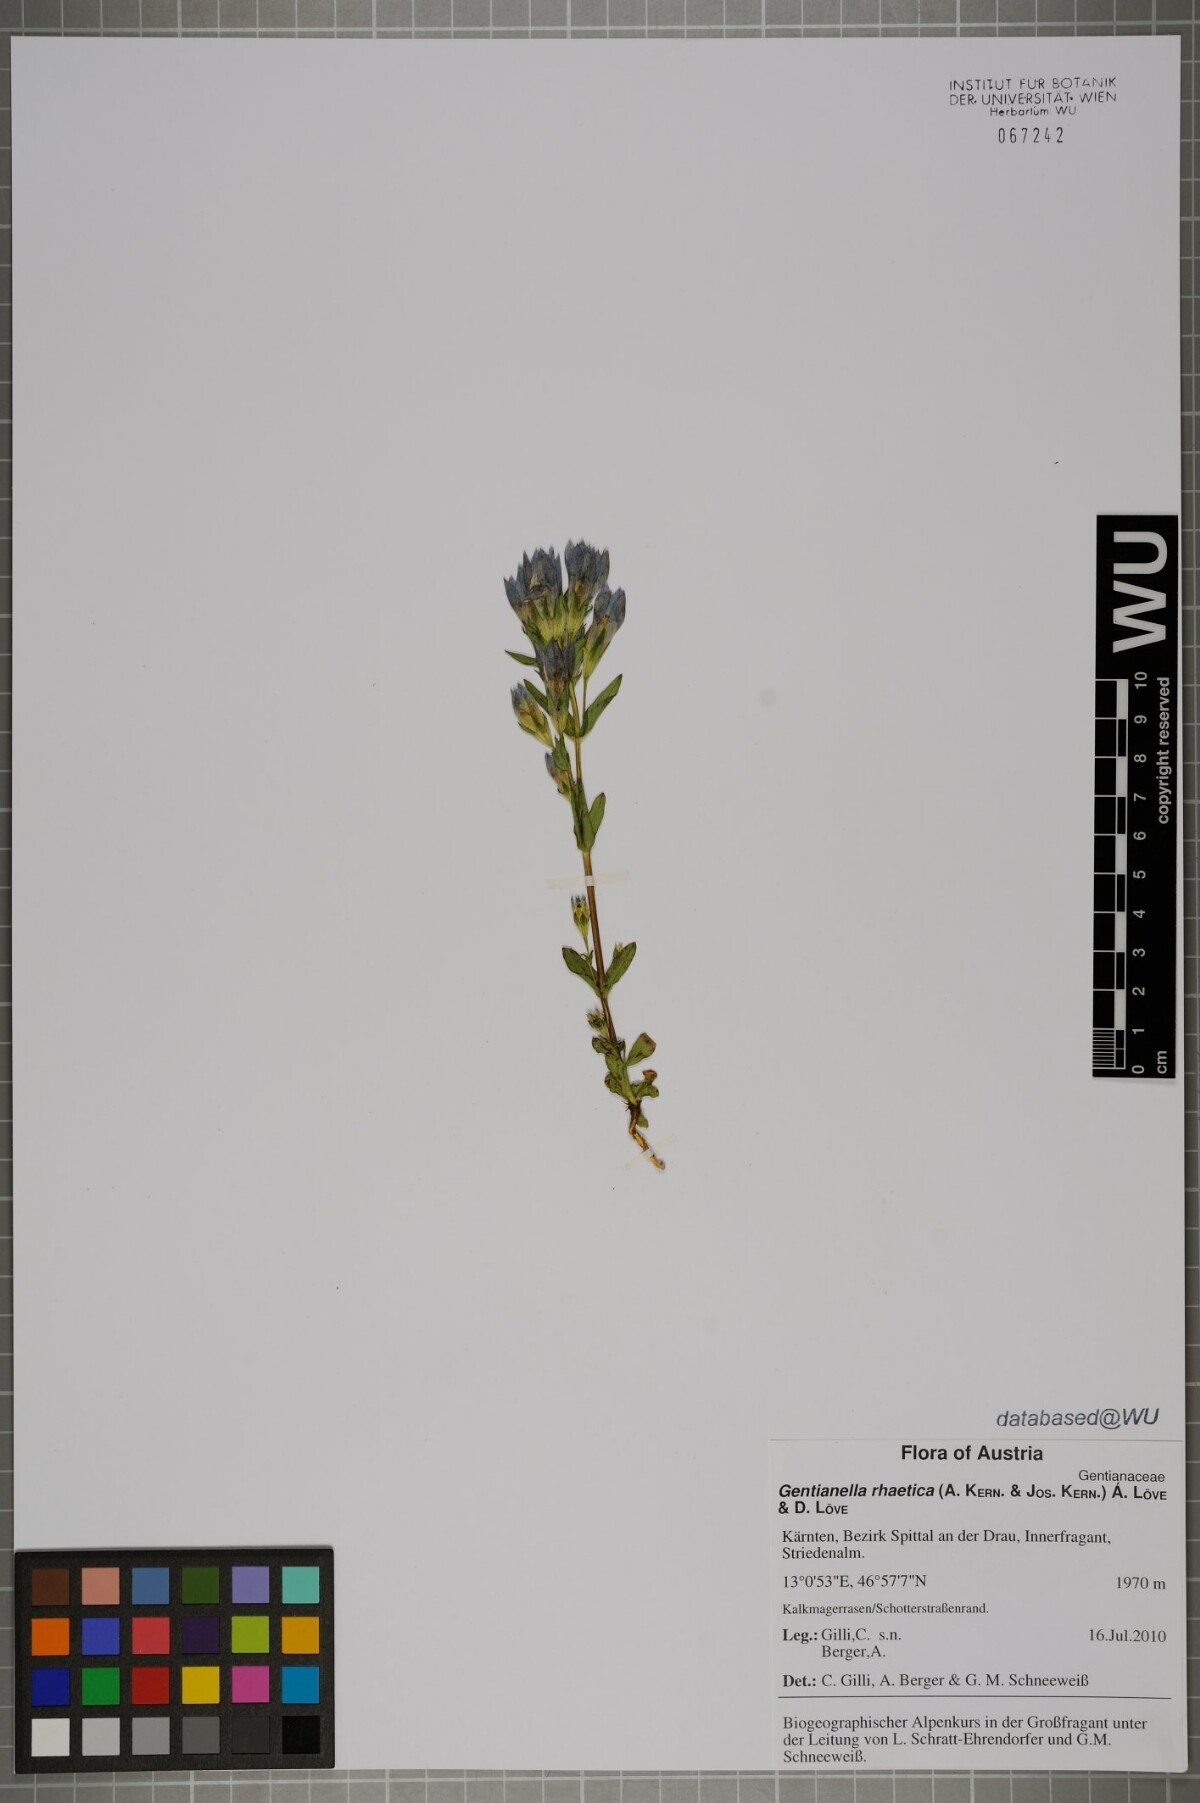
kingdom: Plantae
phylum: Tracheophyta
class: Magnoliopsida
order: Gentianales
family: Gentianaceae
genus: Gentianella
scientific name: Gentianella rhaetica
